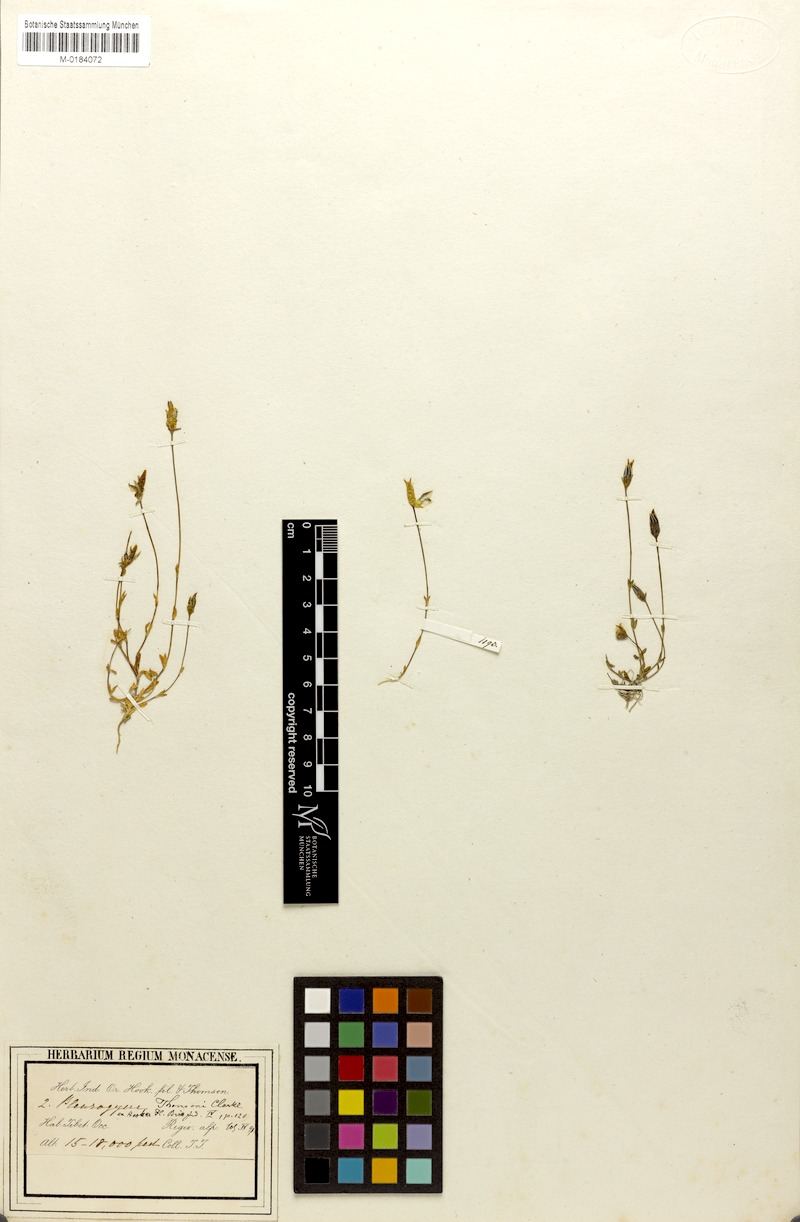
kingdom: Plantae
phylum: Tracheophyta
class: Magnoliopsida
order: Gentianales
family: Gentianaceae
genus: Lomatogonium
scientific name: Lomatogonium brachyantherum
